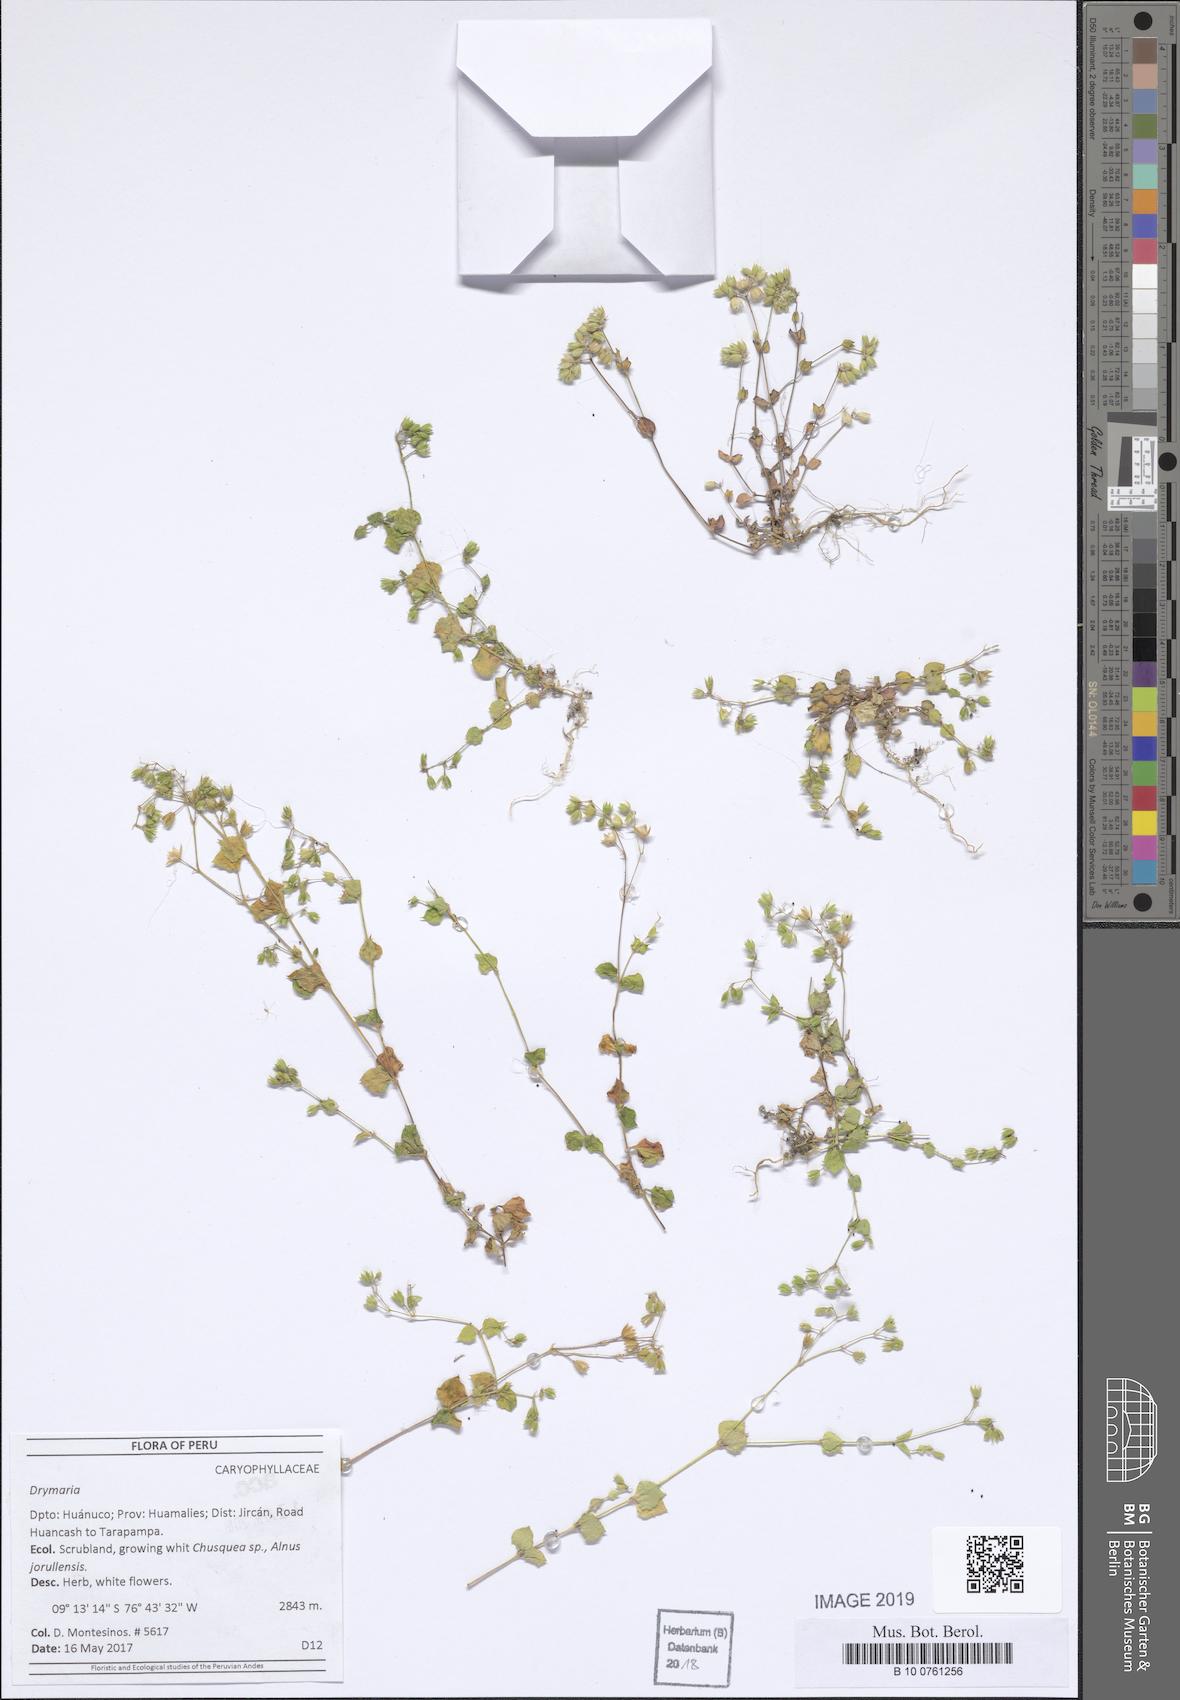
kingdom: Plantae
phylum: Tracheophyta
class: Magnoliopsida
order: Caryophyllales
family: Caryophyllaceae
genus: Drymaria
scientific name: Drymaria
